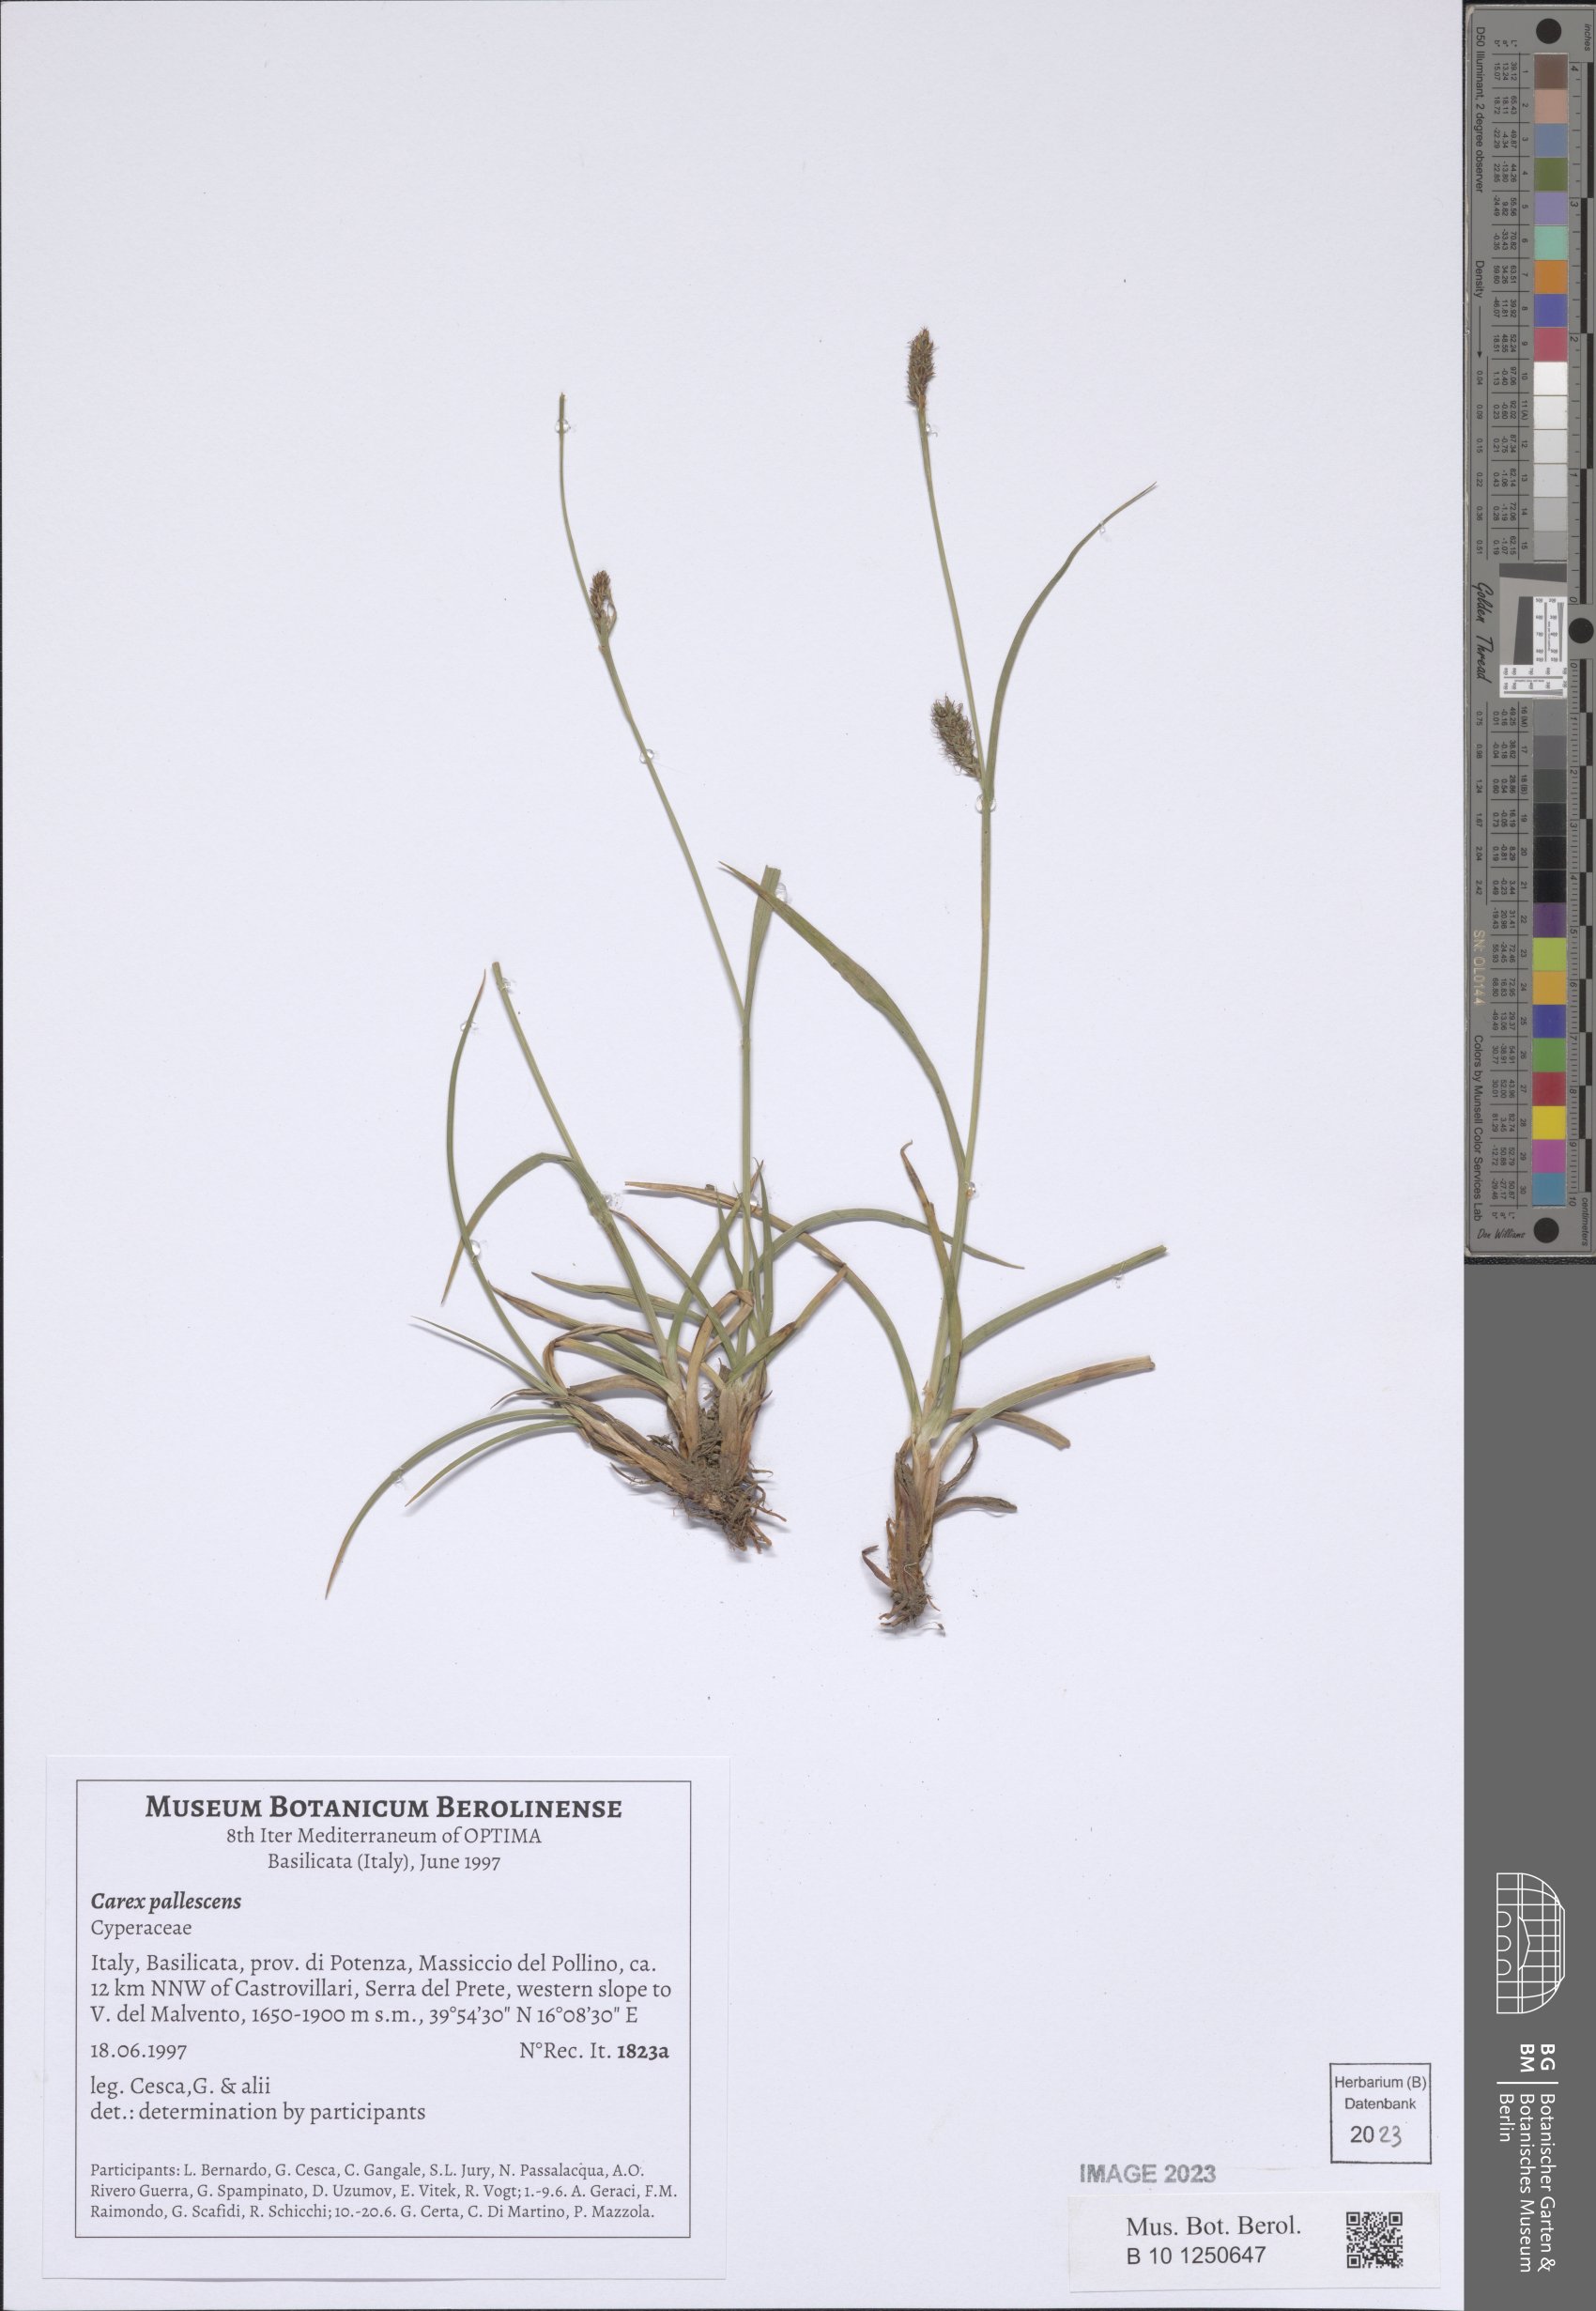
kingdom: Plantae
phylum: Tracheophyta
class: Liliopsida
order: Poales
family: Cyperaceae
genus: Carex
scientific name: Carex pallescens
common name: Pale sedge
